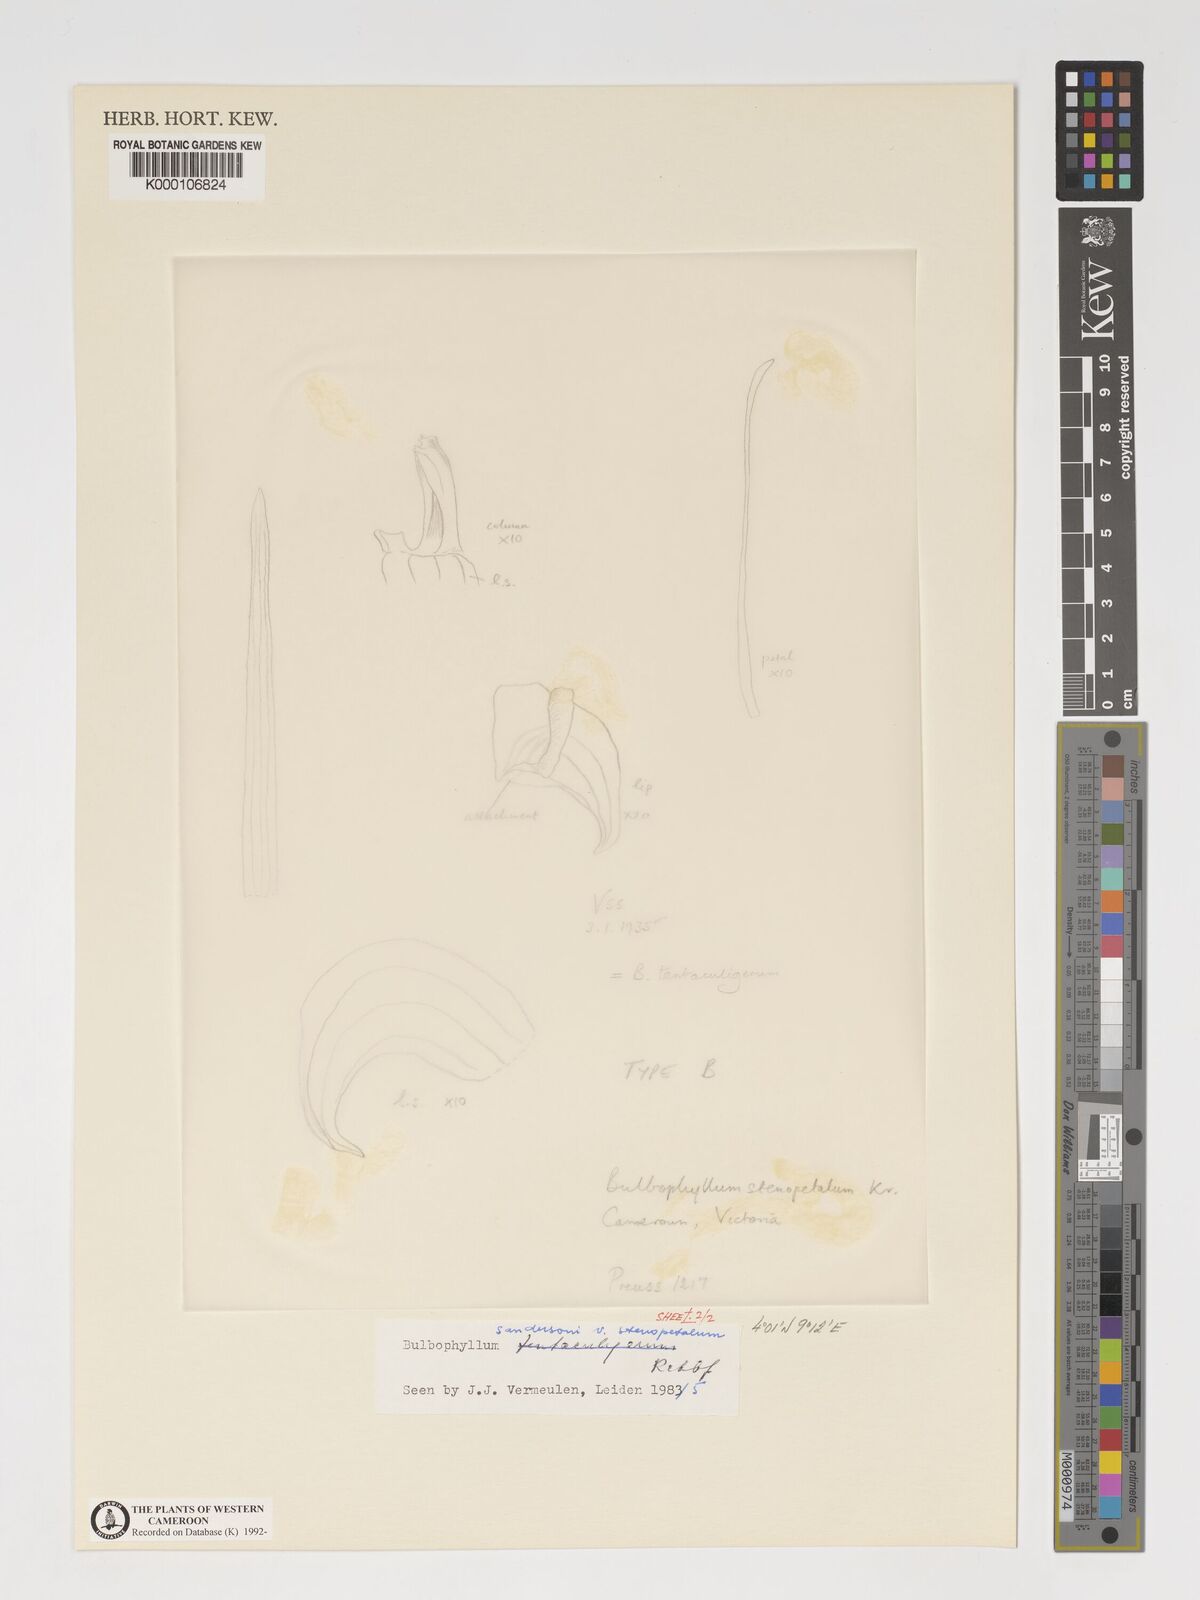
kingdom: Plantae
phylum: Tracheophyta
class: Liliopsida
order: Asparagales
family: Orchidaceae
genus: Bulbophyllum
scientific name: Bulbophyllum sandersonii
